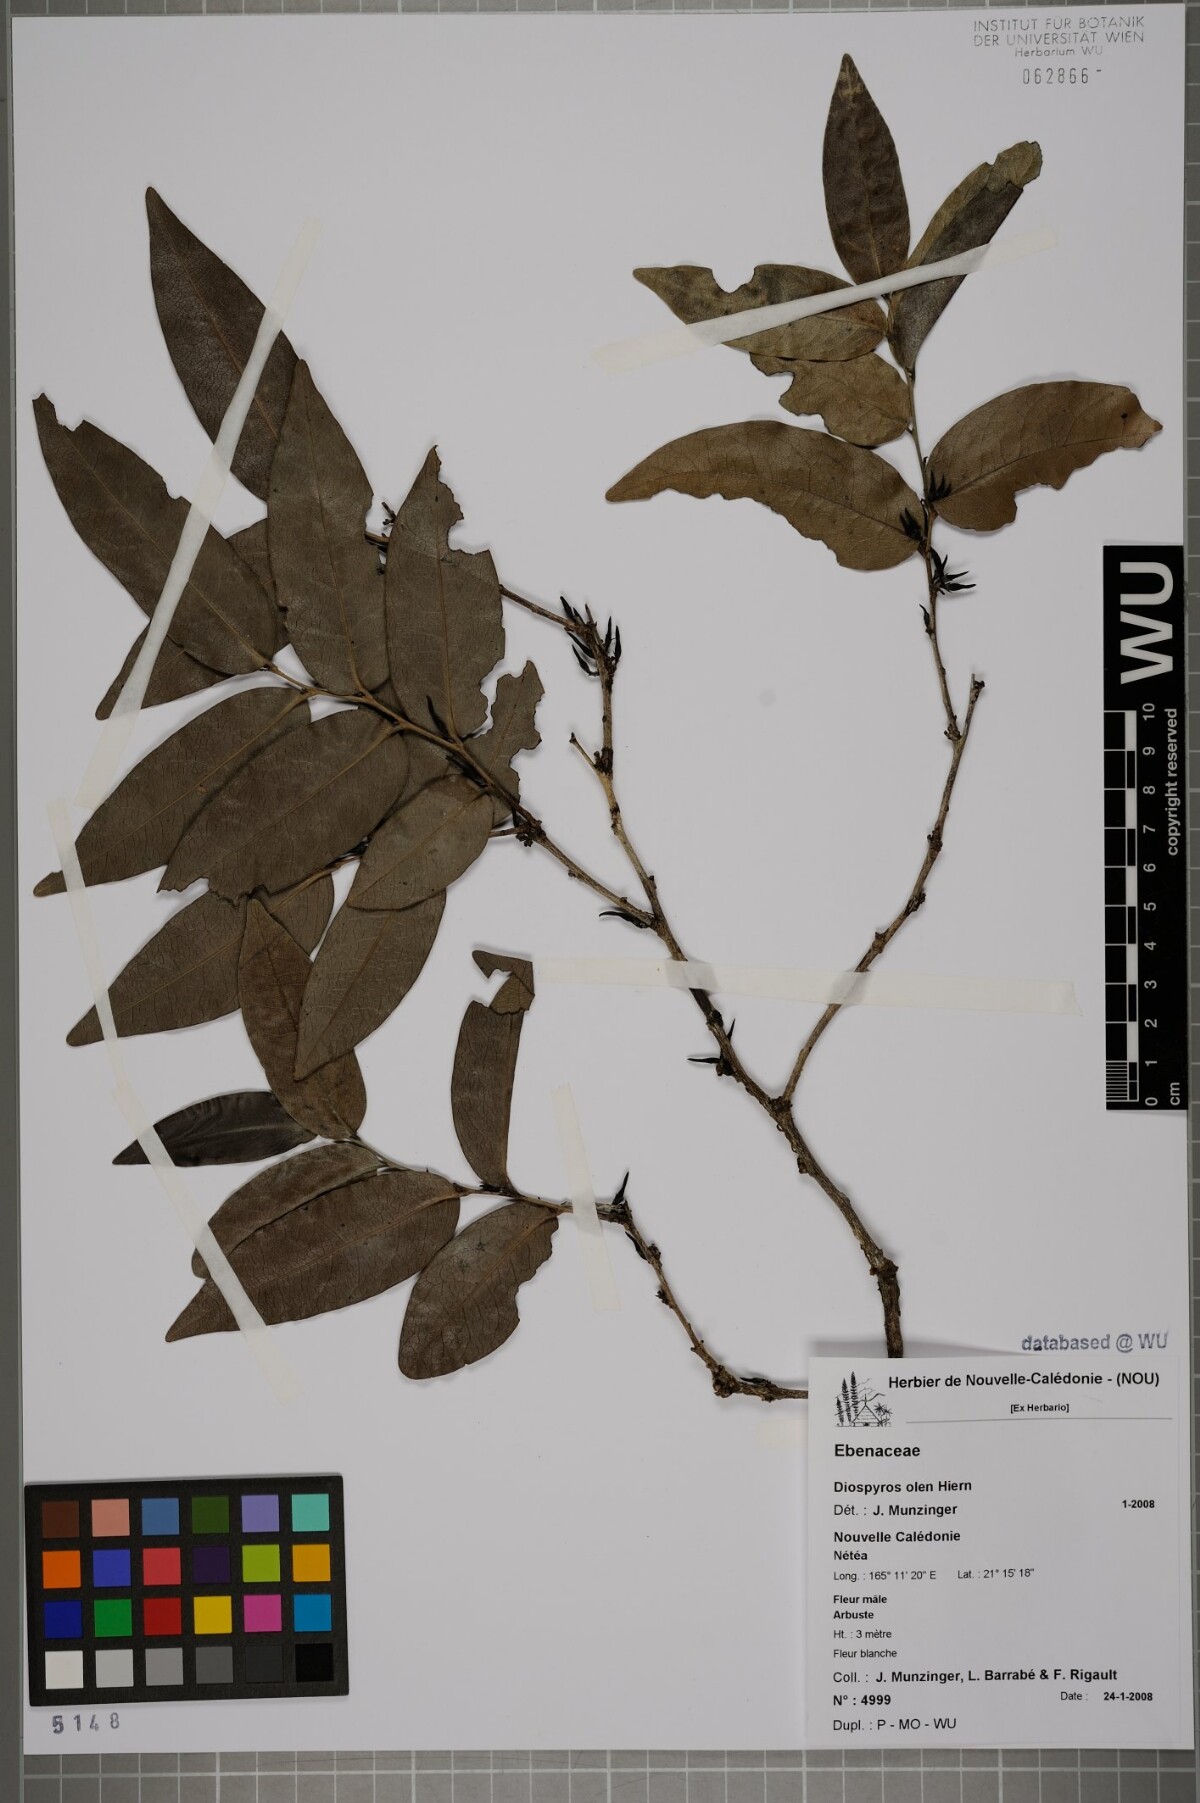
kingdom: Plantae
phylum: Tracheophyta
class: Magnoliopsida
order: Ericales
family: Ebenaceae
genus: Diospyros
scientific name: Diospyros samoensis
